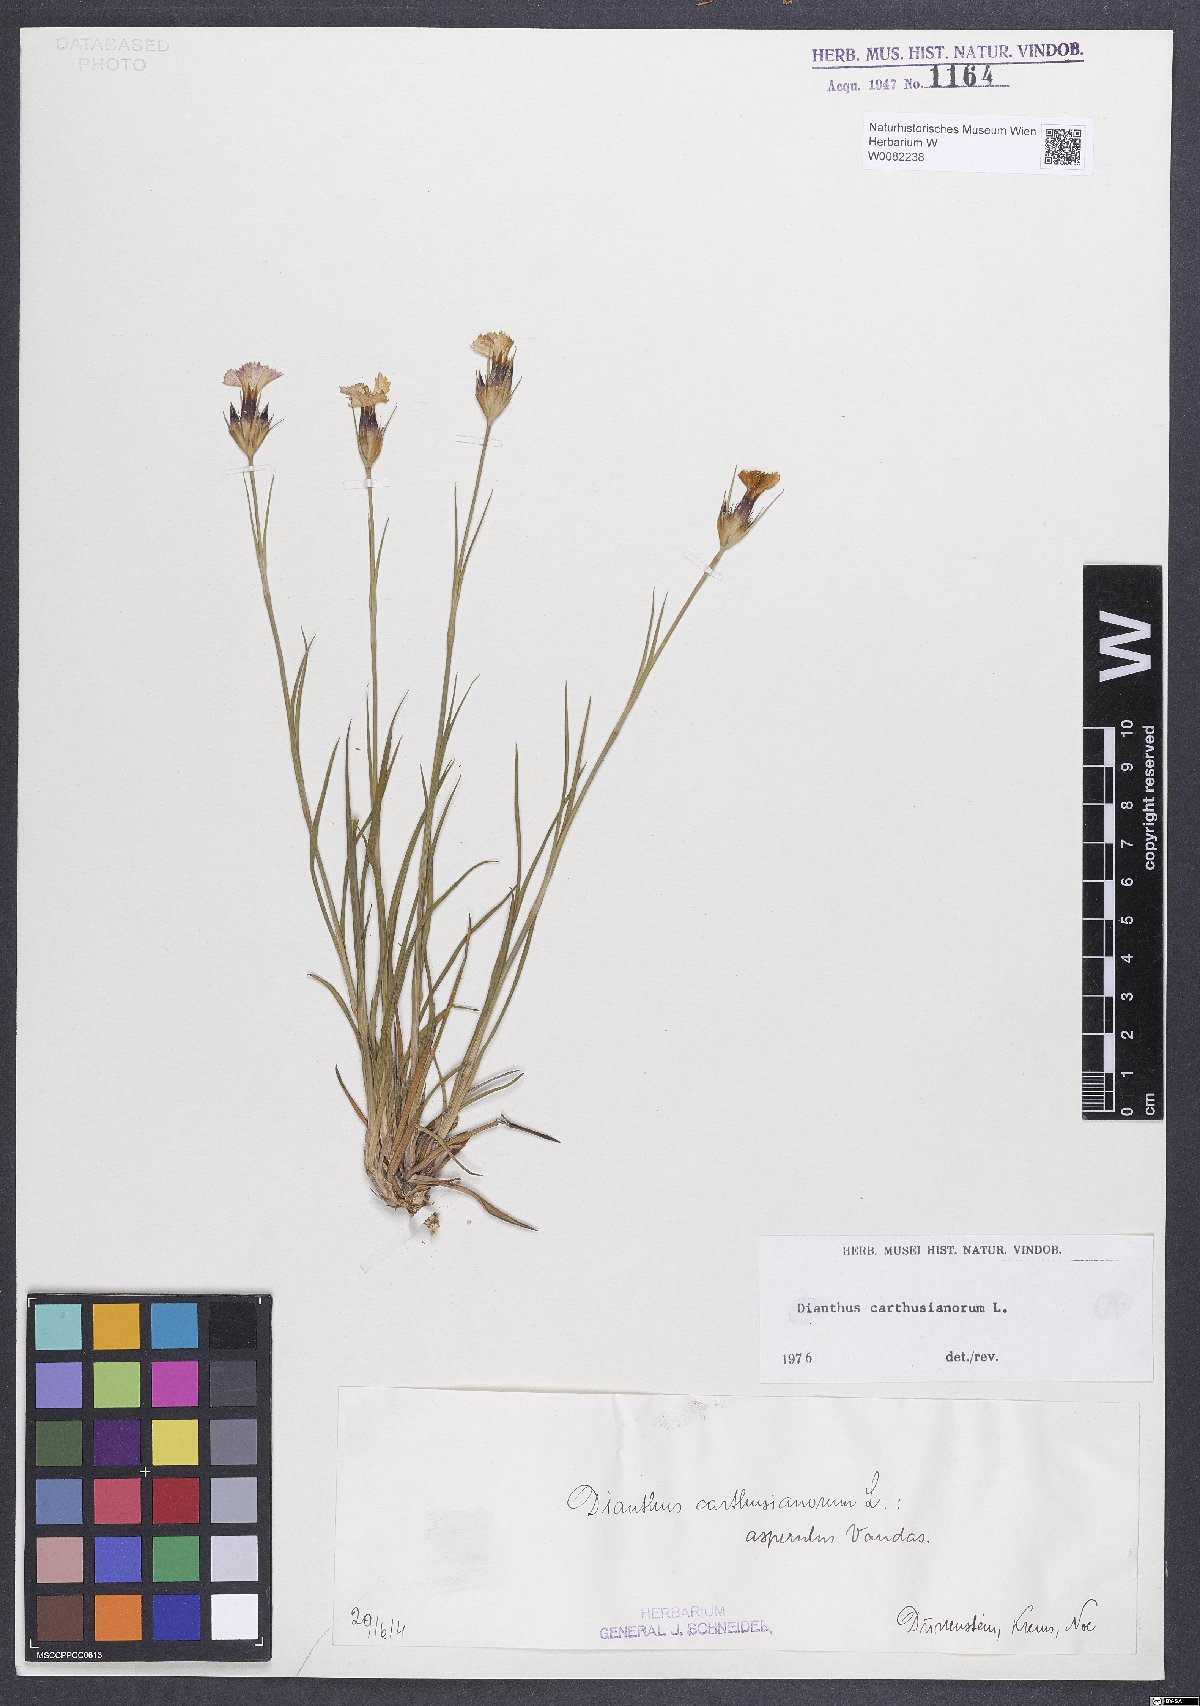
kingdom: Plantae
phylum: Tracheophyta
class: Magnoliopsida
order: Caryophyllales
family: Caryophyllaceae
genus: Dianthus
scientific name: Dianthus carthusianorum
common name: Carthusian pink
